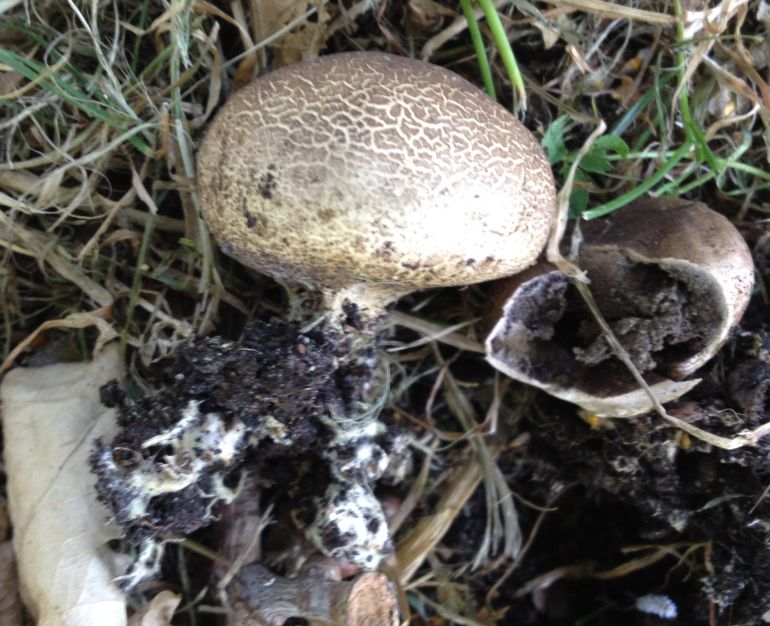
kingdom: Fungi
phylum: Basidiomycota
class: Agaricomycetes
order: Boletales
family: Sclerodermataceae
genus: Scleroderma
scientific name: Scleroderma verrucosum
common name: stilket bruskbold
